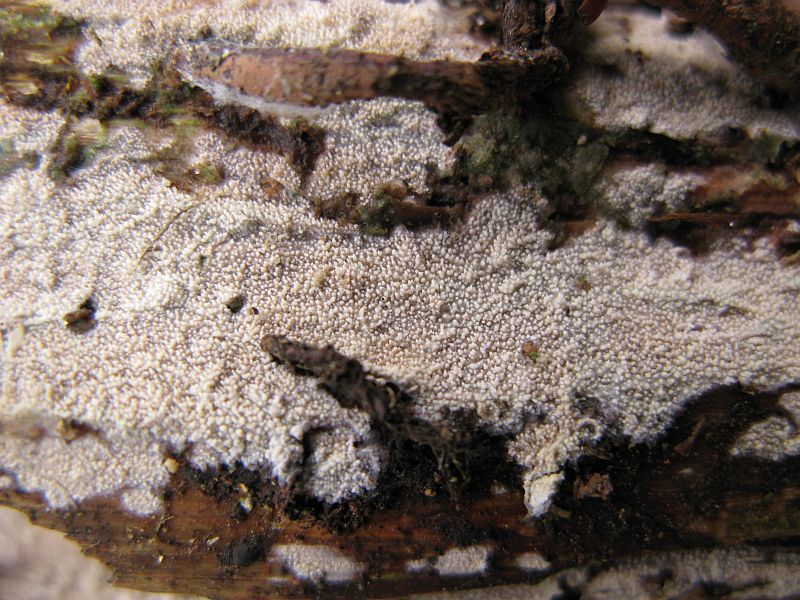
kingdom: Fungi
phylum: Basidiomycota
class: Agaricomycetes
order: Hymenochaetales
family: Rickenellaceae
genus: Resinicium
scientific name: Resinicium bicolor
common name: almindelig vokstand
